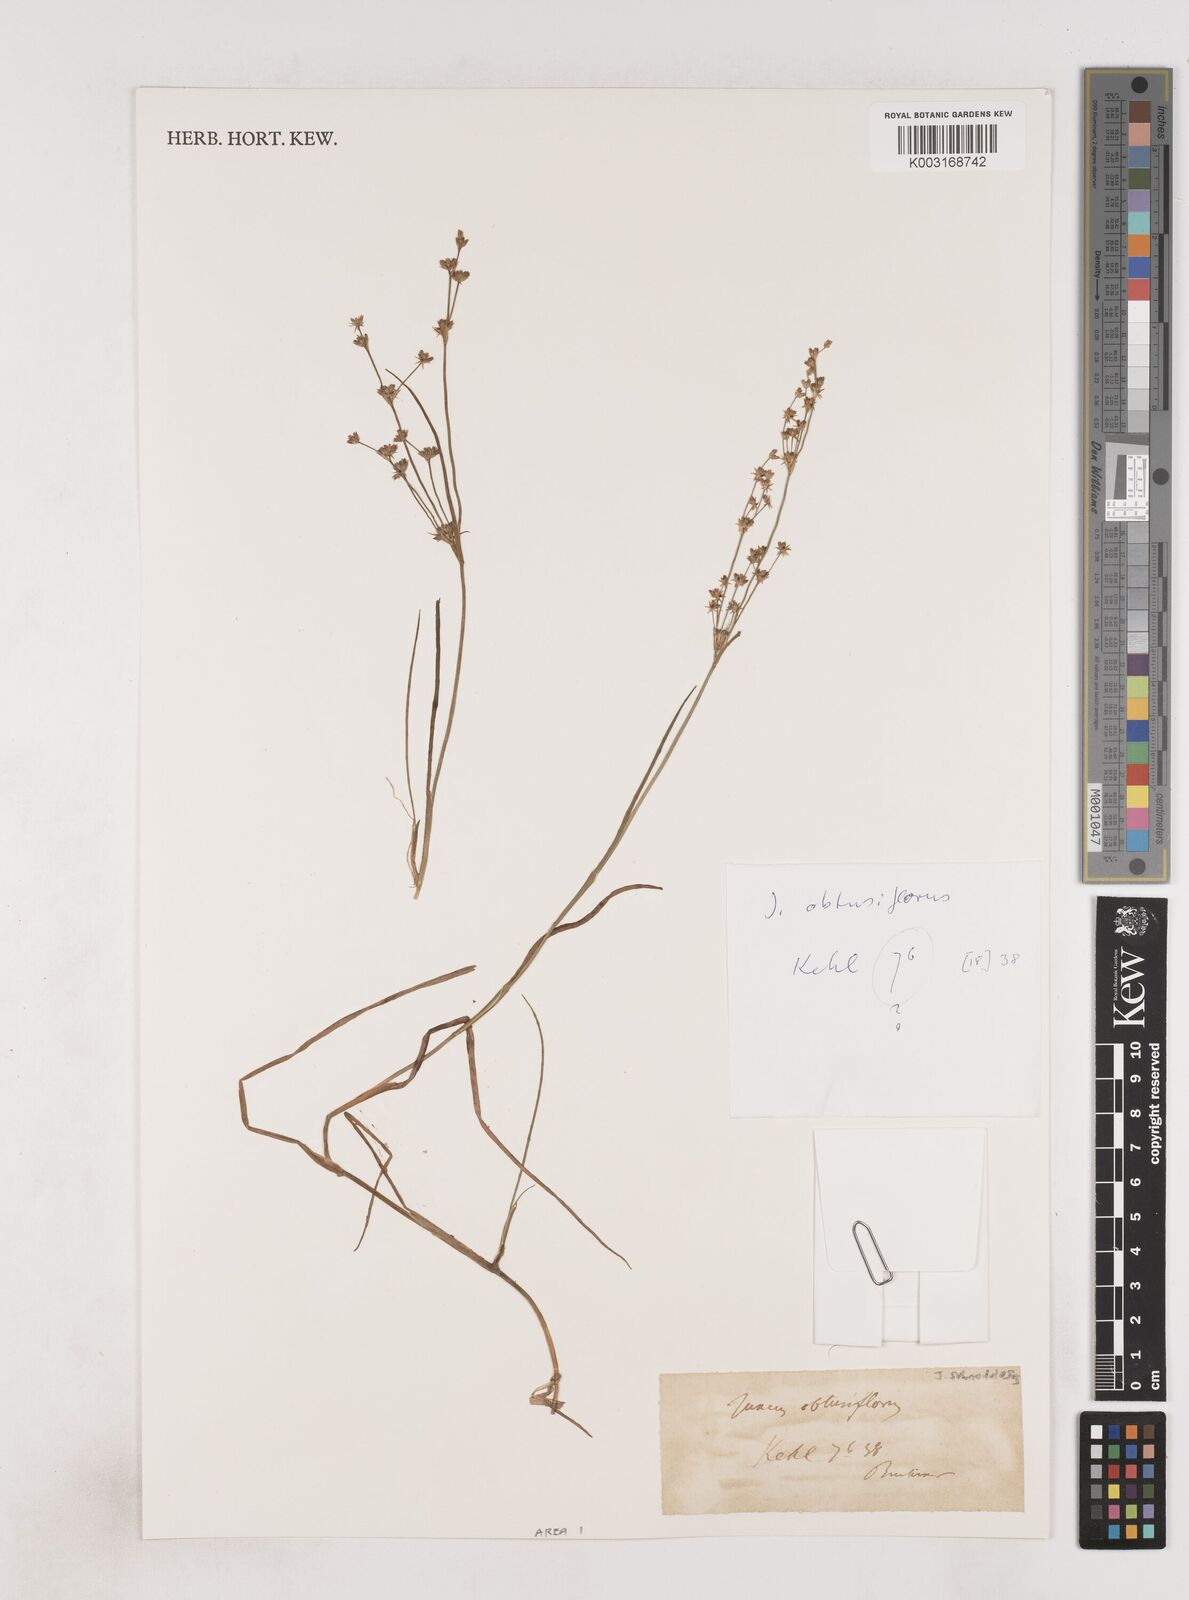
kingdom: Plantae
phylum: Tracheophyta
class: Liliopsida
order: Poales
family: Juncaceae
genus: Juncus
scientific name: Juncus subnodulosus
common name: Blunt-flowered rush
